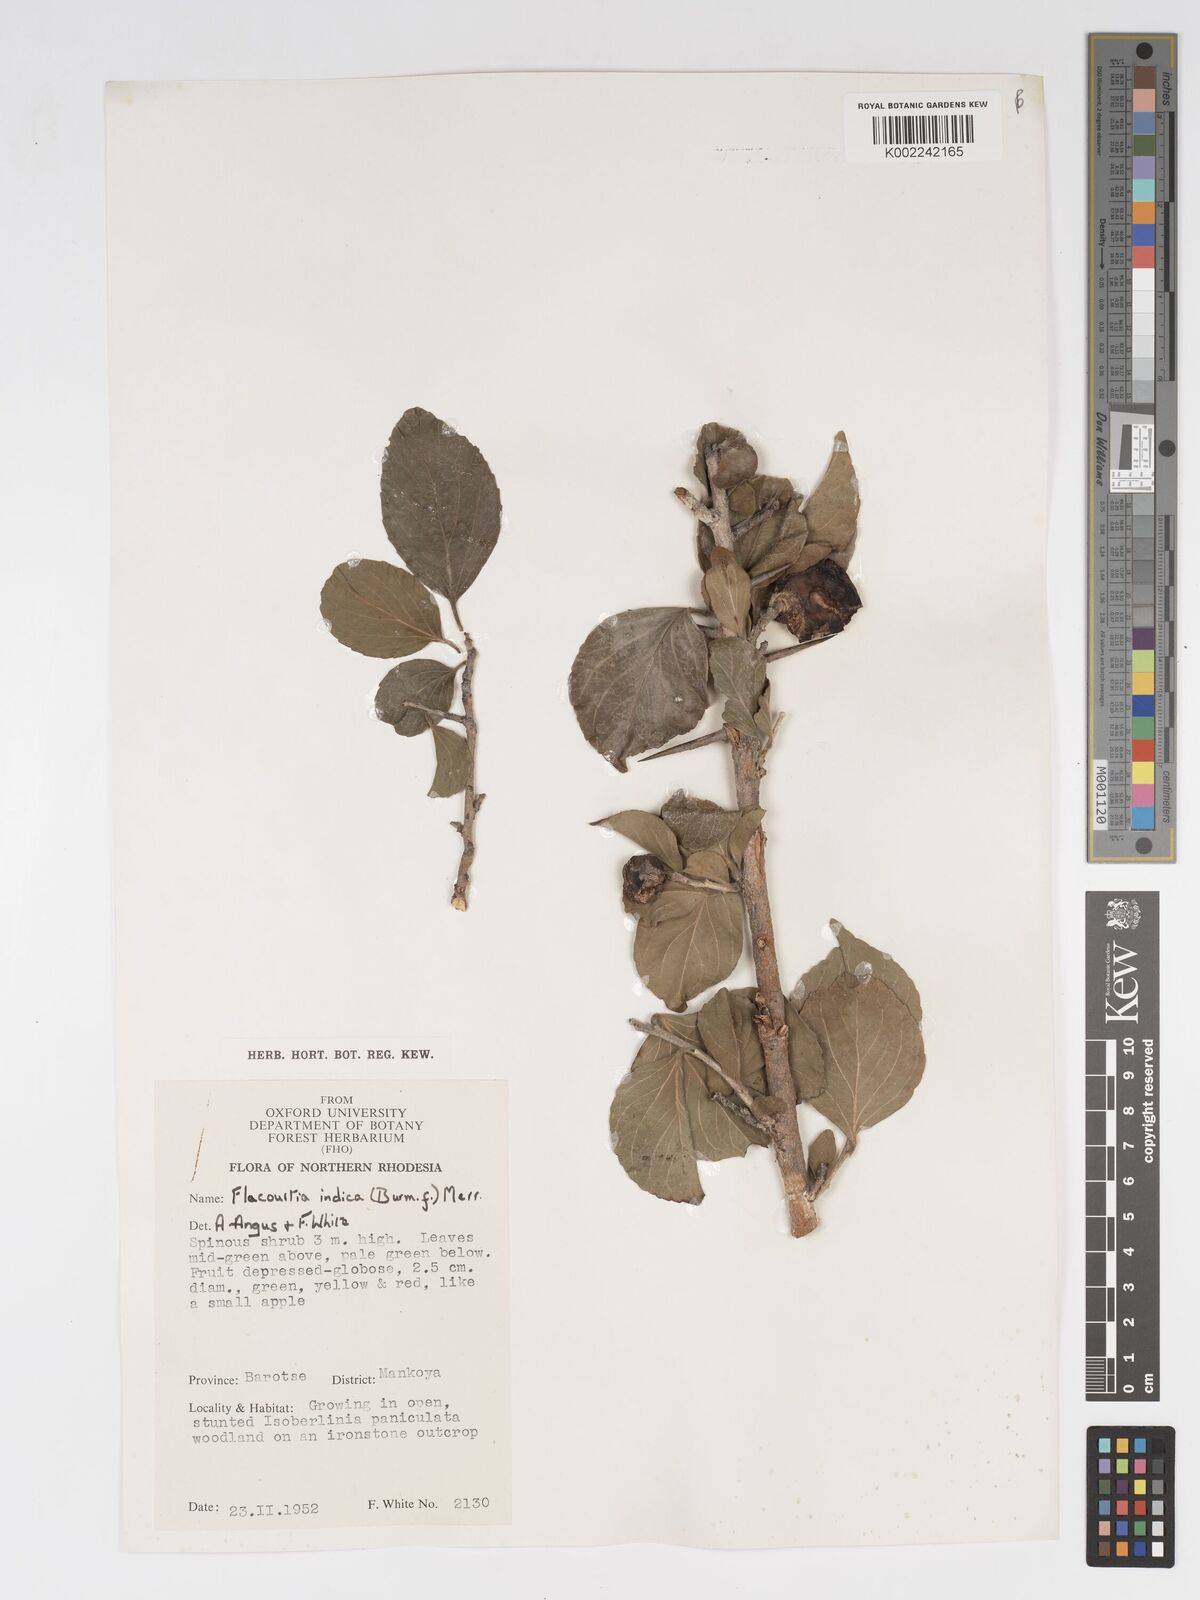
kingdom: Plantae
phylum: Tracheophyta
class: Magnoliopsida
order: Malpighiales
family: Salicaceae
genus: Flacourtia
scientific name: Flacourtia indica
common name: Governor's plum
